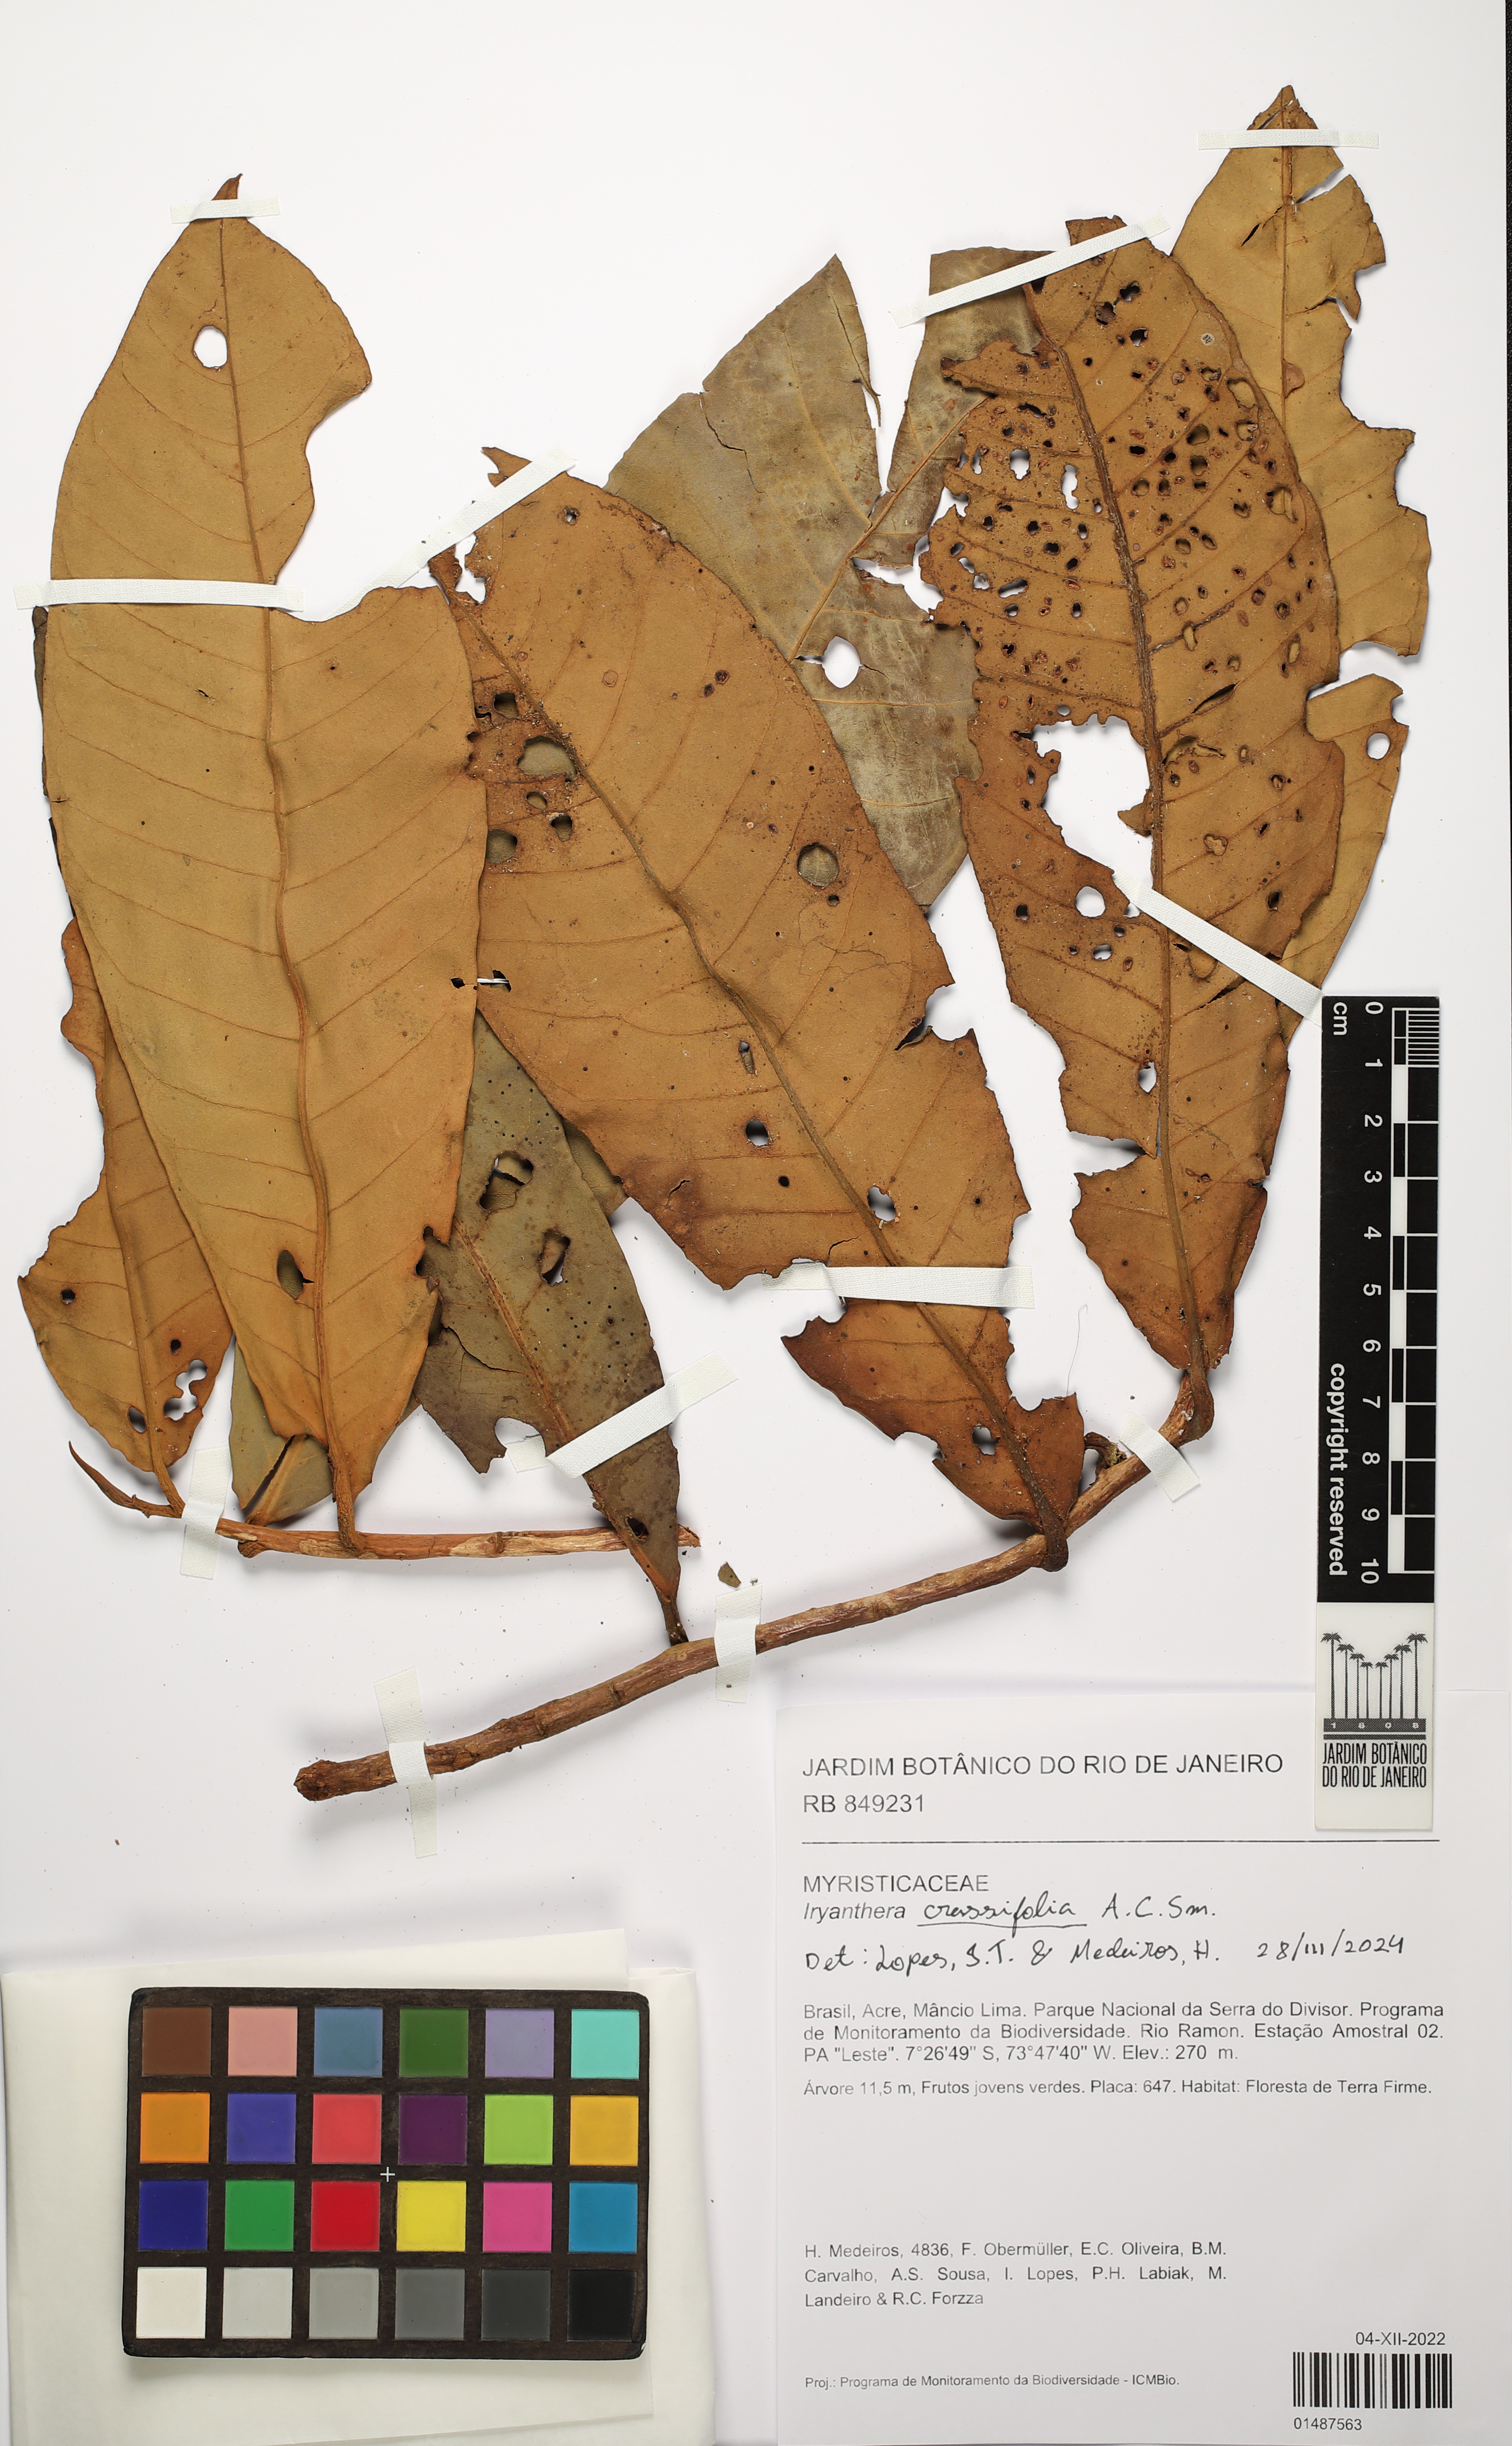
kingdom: Plantae
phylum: Tracheophyta
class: Magnoliopsida
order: Magnoliales
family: Myristicaceae
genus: Iryanthera
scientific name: Iryanthera crassifolia
